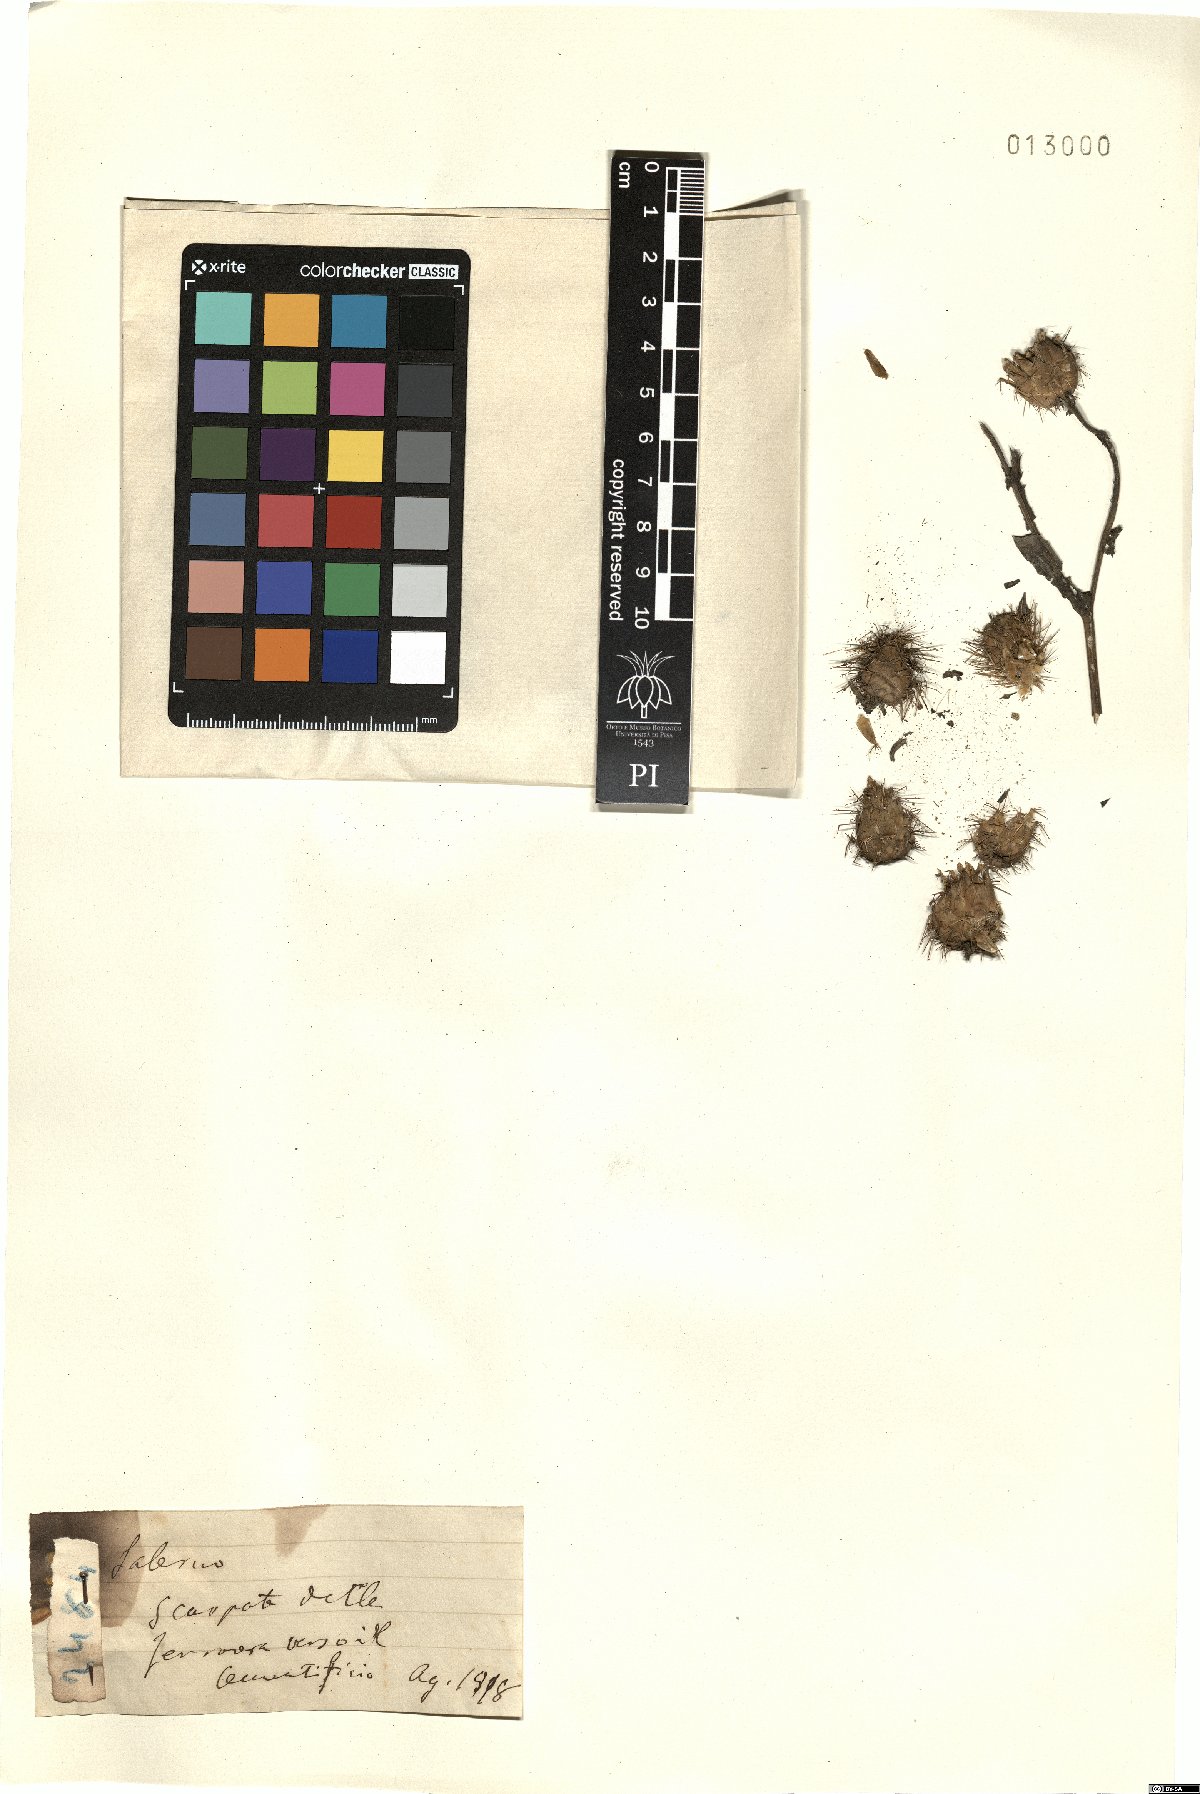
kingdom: Plantae
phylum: Tracheophyta
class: Magnoliopsida
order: Asterales
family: Asteraceae
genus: Centaurea
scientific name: Centaurea
